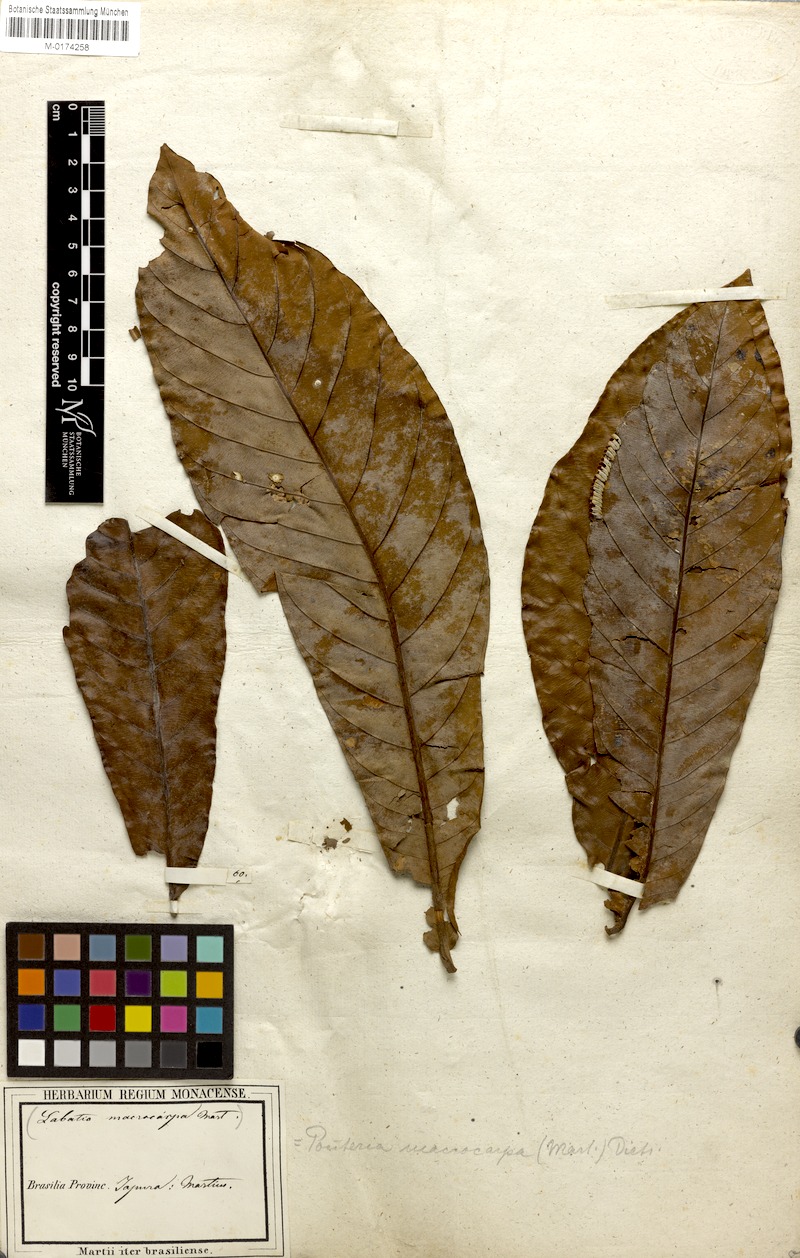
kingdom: Plantae
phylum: Tracheophyta
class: Magnoliopsida
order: Ericales
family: Sapotaceae
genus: Pouteria
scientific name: Pouteria macrocarpa
